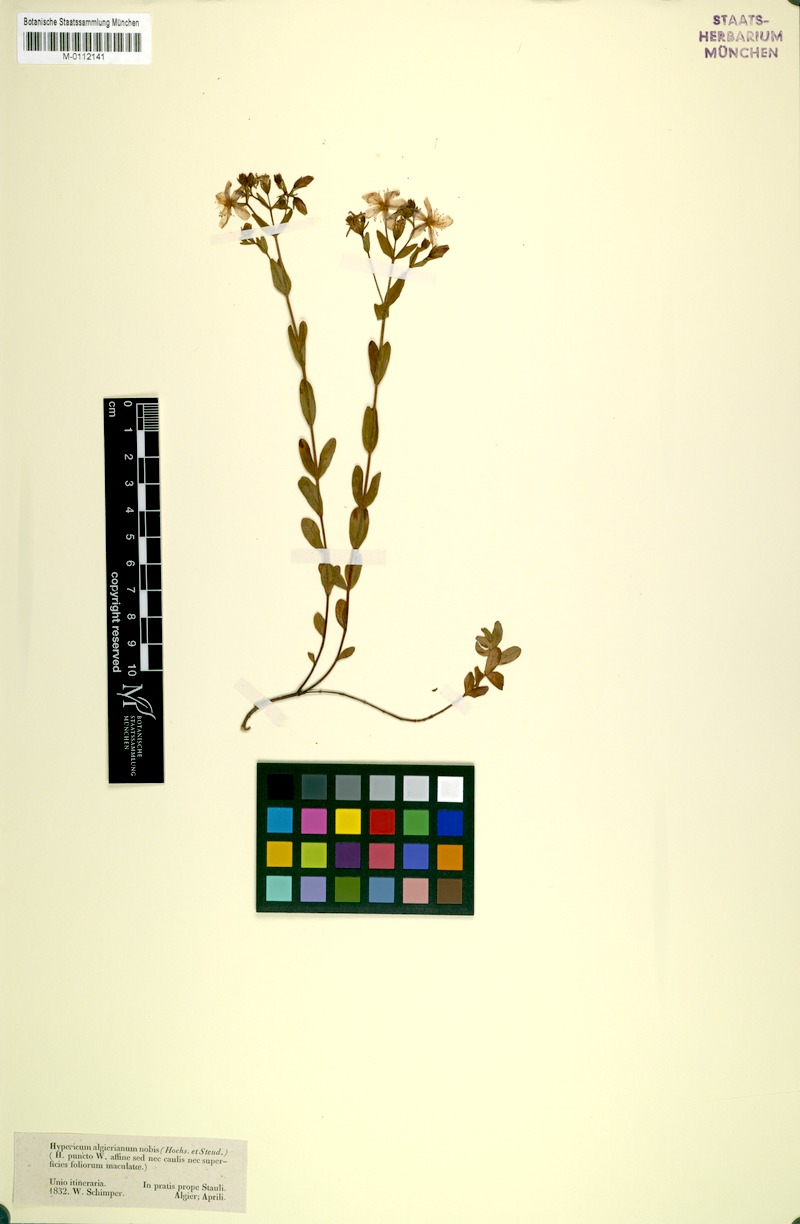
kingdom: Plantae
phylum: Tracheophyta
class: Magnoliopsida
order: Malpighiales
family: Hypericaceae
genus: Hypericum
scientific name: Hypericum
